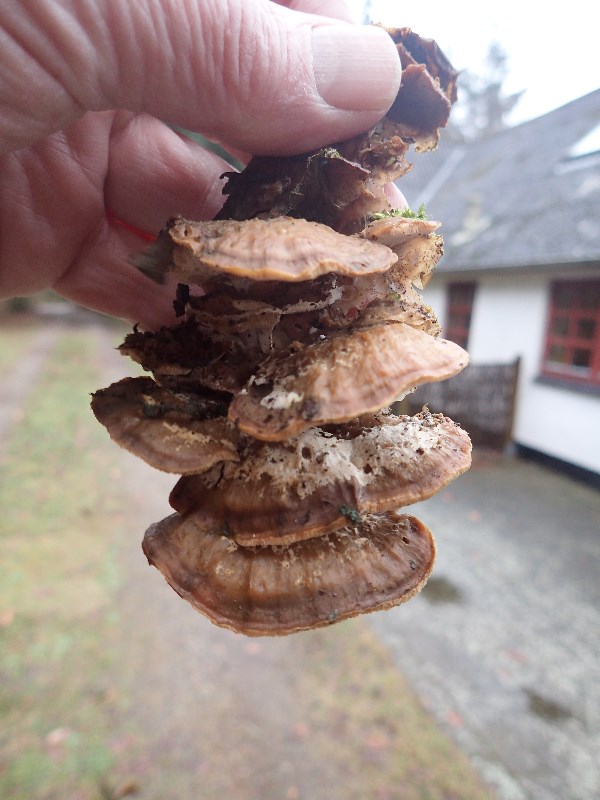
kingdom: Fungi
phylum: Basidiomycota
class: Agaricomycetes
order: Polyporales
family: Phanerochaetaceae
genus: Bjerkandera
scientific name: Bjerkandera fumosa
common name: grågul sodporesvamp
